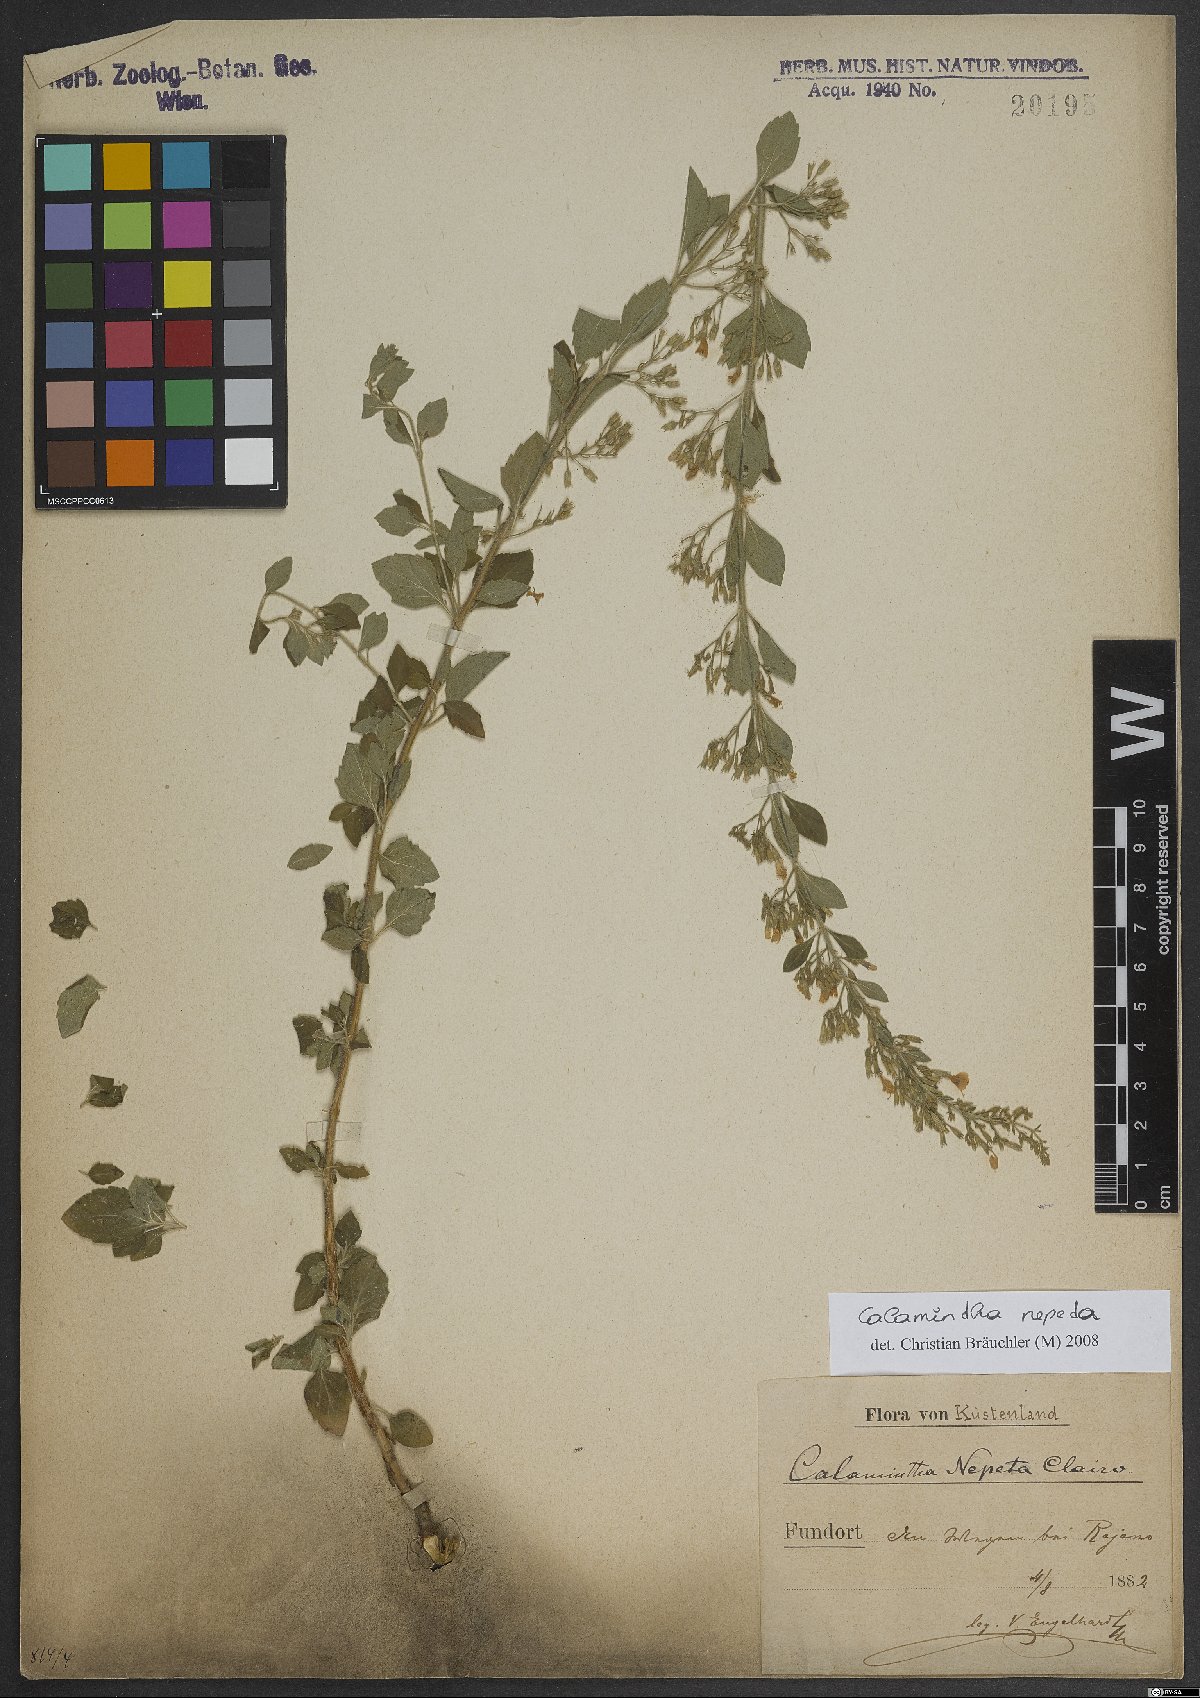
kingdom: Plantae
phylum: Tracheophyta
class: Magnoliopsida
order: Lamiales
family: Lamiaceae
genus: Clinopodium
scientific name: Clinopodium nepeta
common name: Lesser calamint
